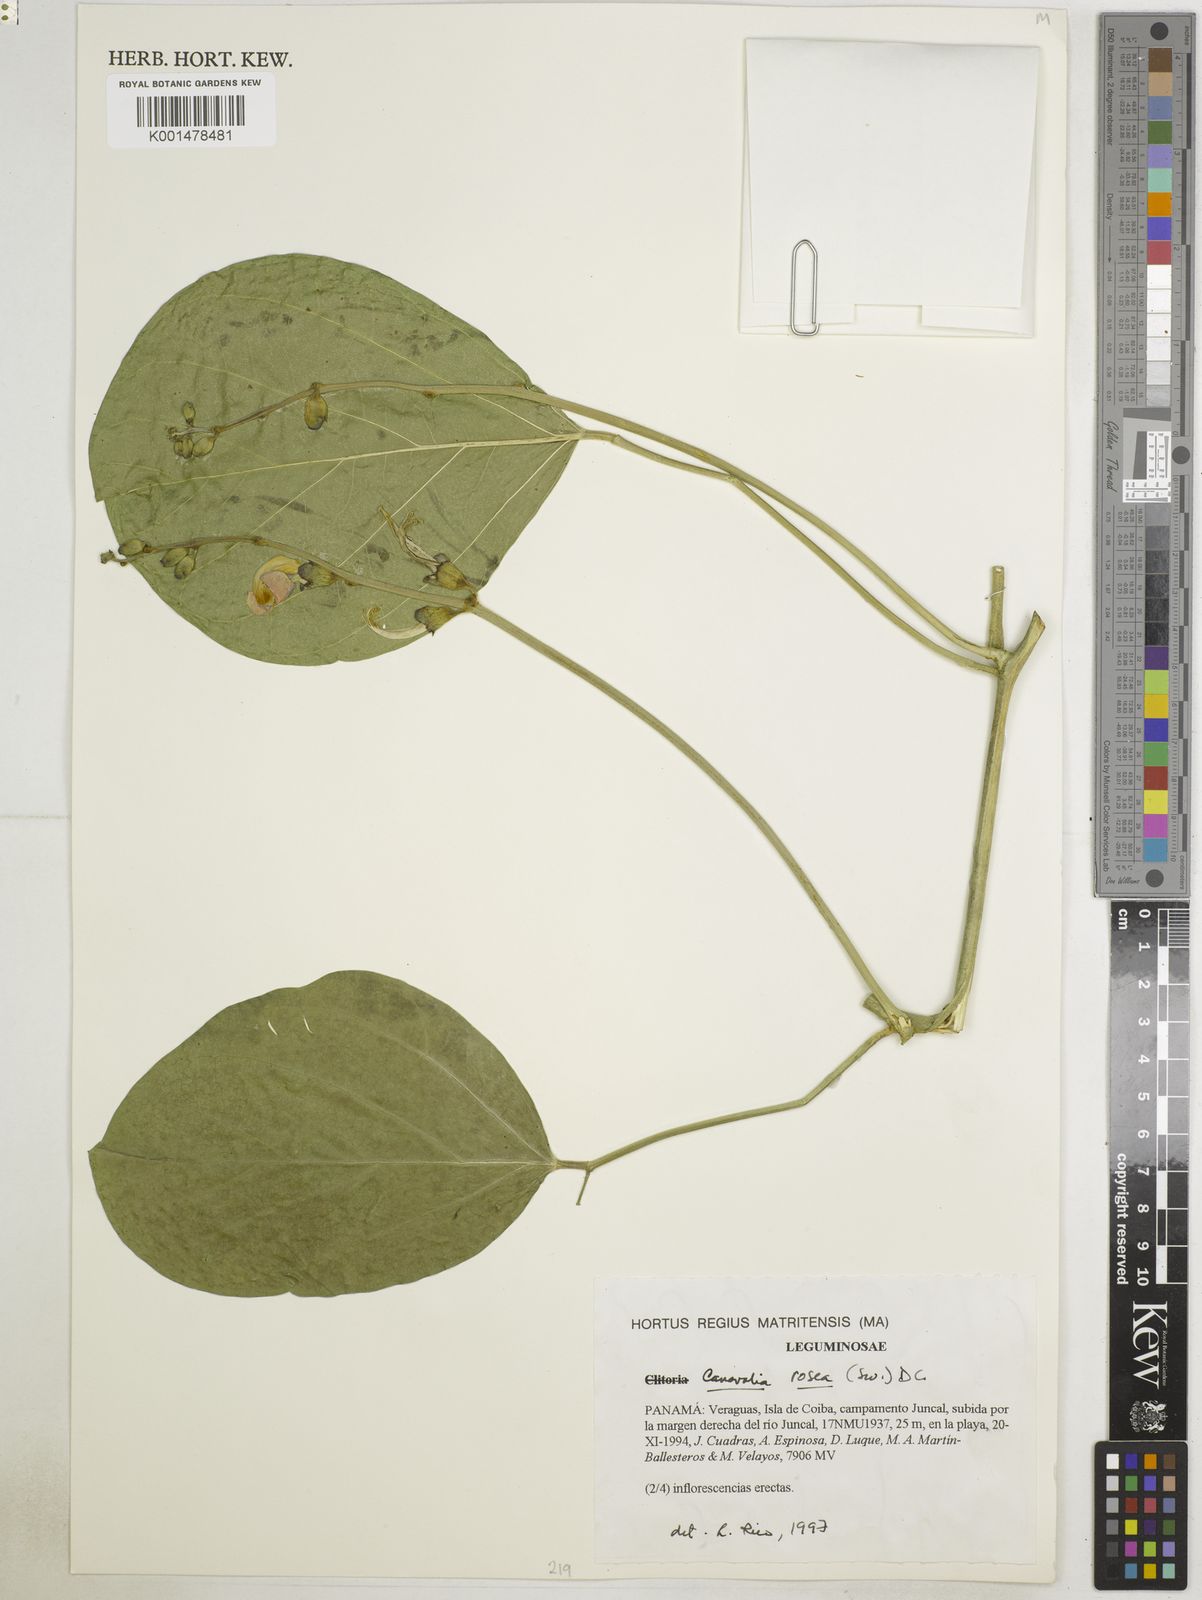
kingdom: Plantae
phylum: Tracheophyta
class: Magnoliopsida
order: Fabales
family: Fabaceae
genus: Canavalia
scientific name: Canavalia rosea
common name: Beach-bean
